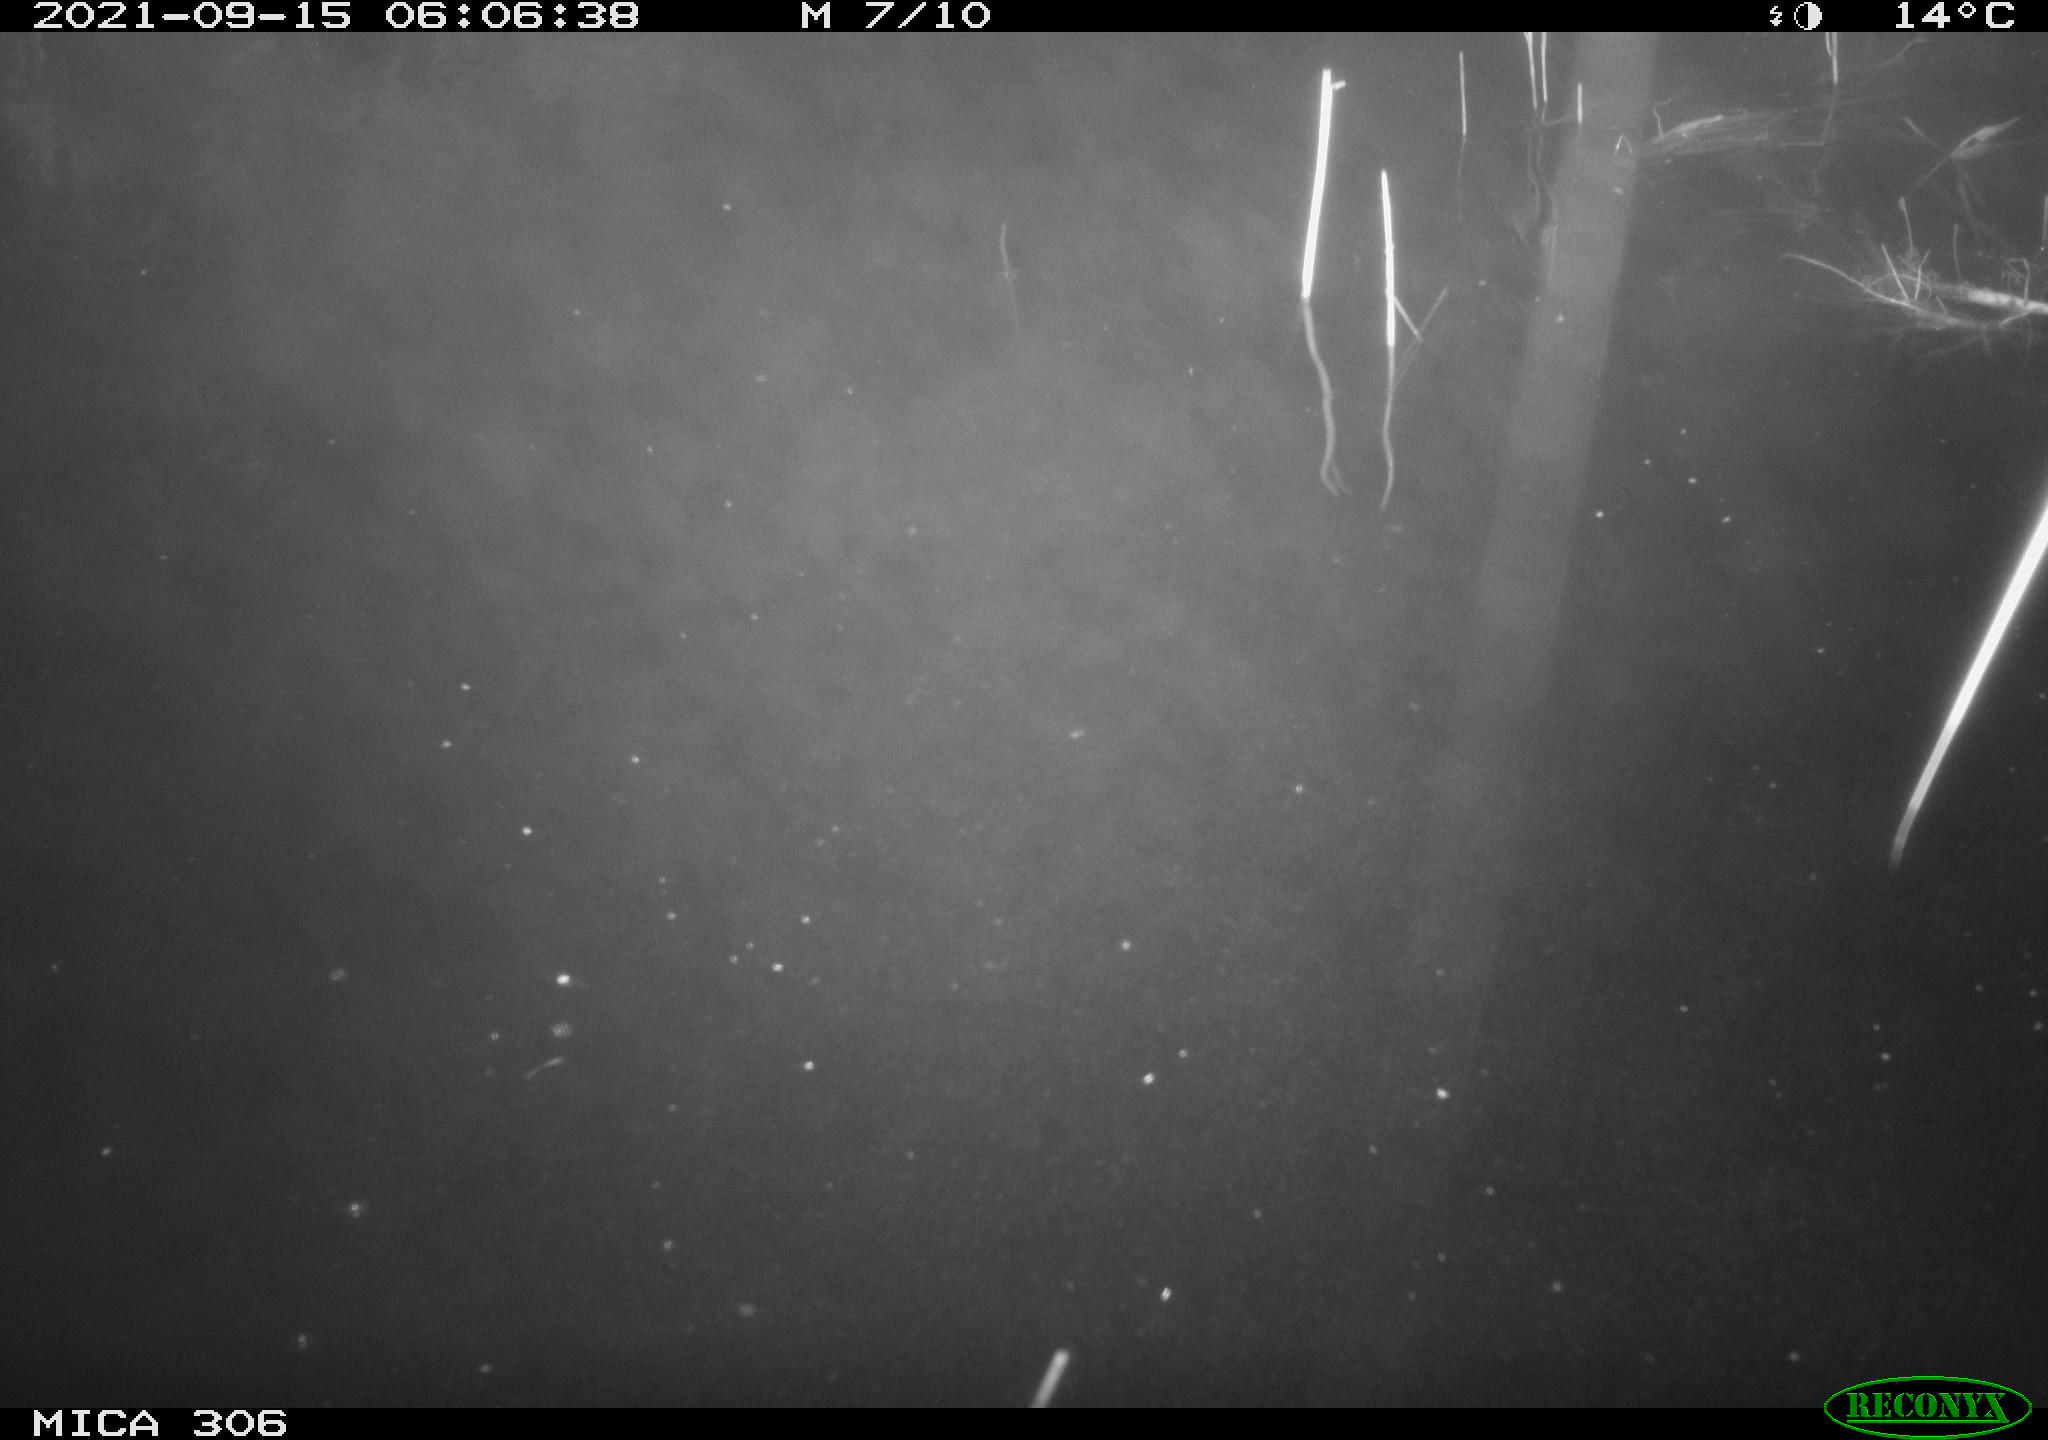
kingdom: Animalia
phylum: Chordata
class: Mammalia
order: Rodentia
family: Cricetidae
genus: Ondatra
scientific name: Ondatra zibethicus
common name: Muskrat
